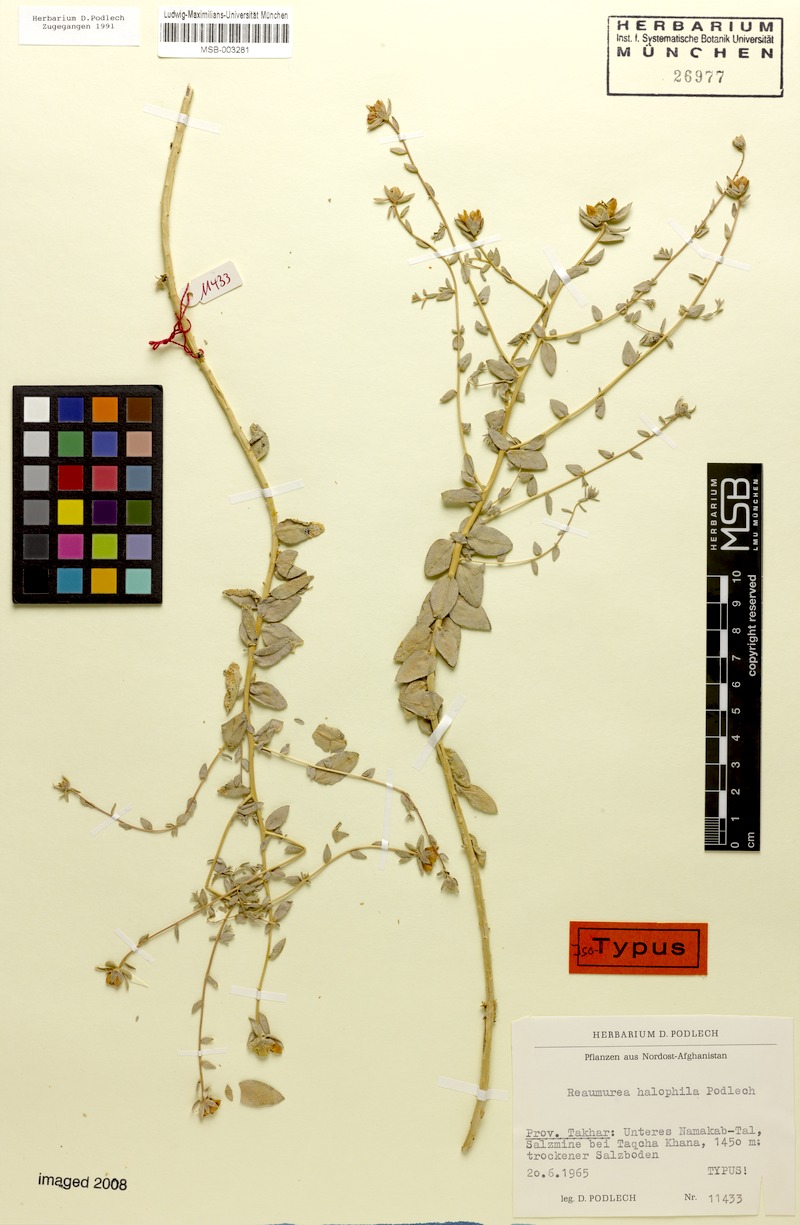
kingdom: Plantae
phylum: Tracheophyta
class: Magnoliopsida
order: Caryophyllales
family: Tamaricaceae
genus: Reaumuria
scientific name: Reaumuria halophila
